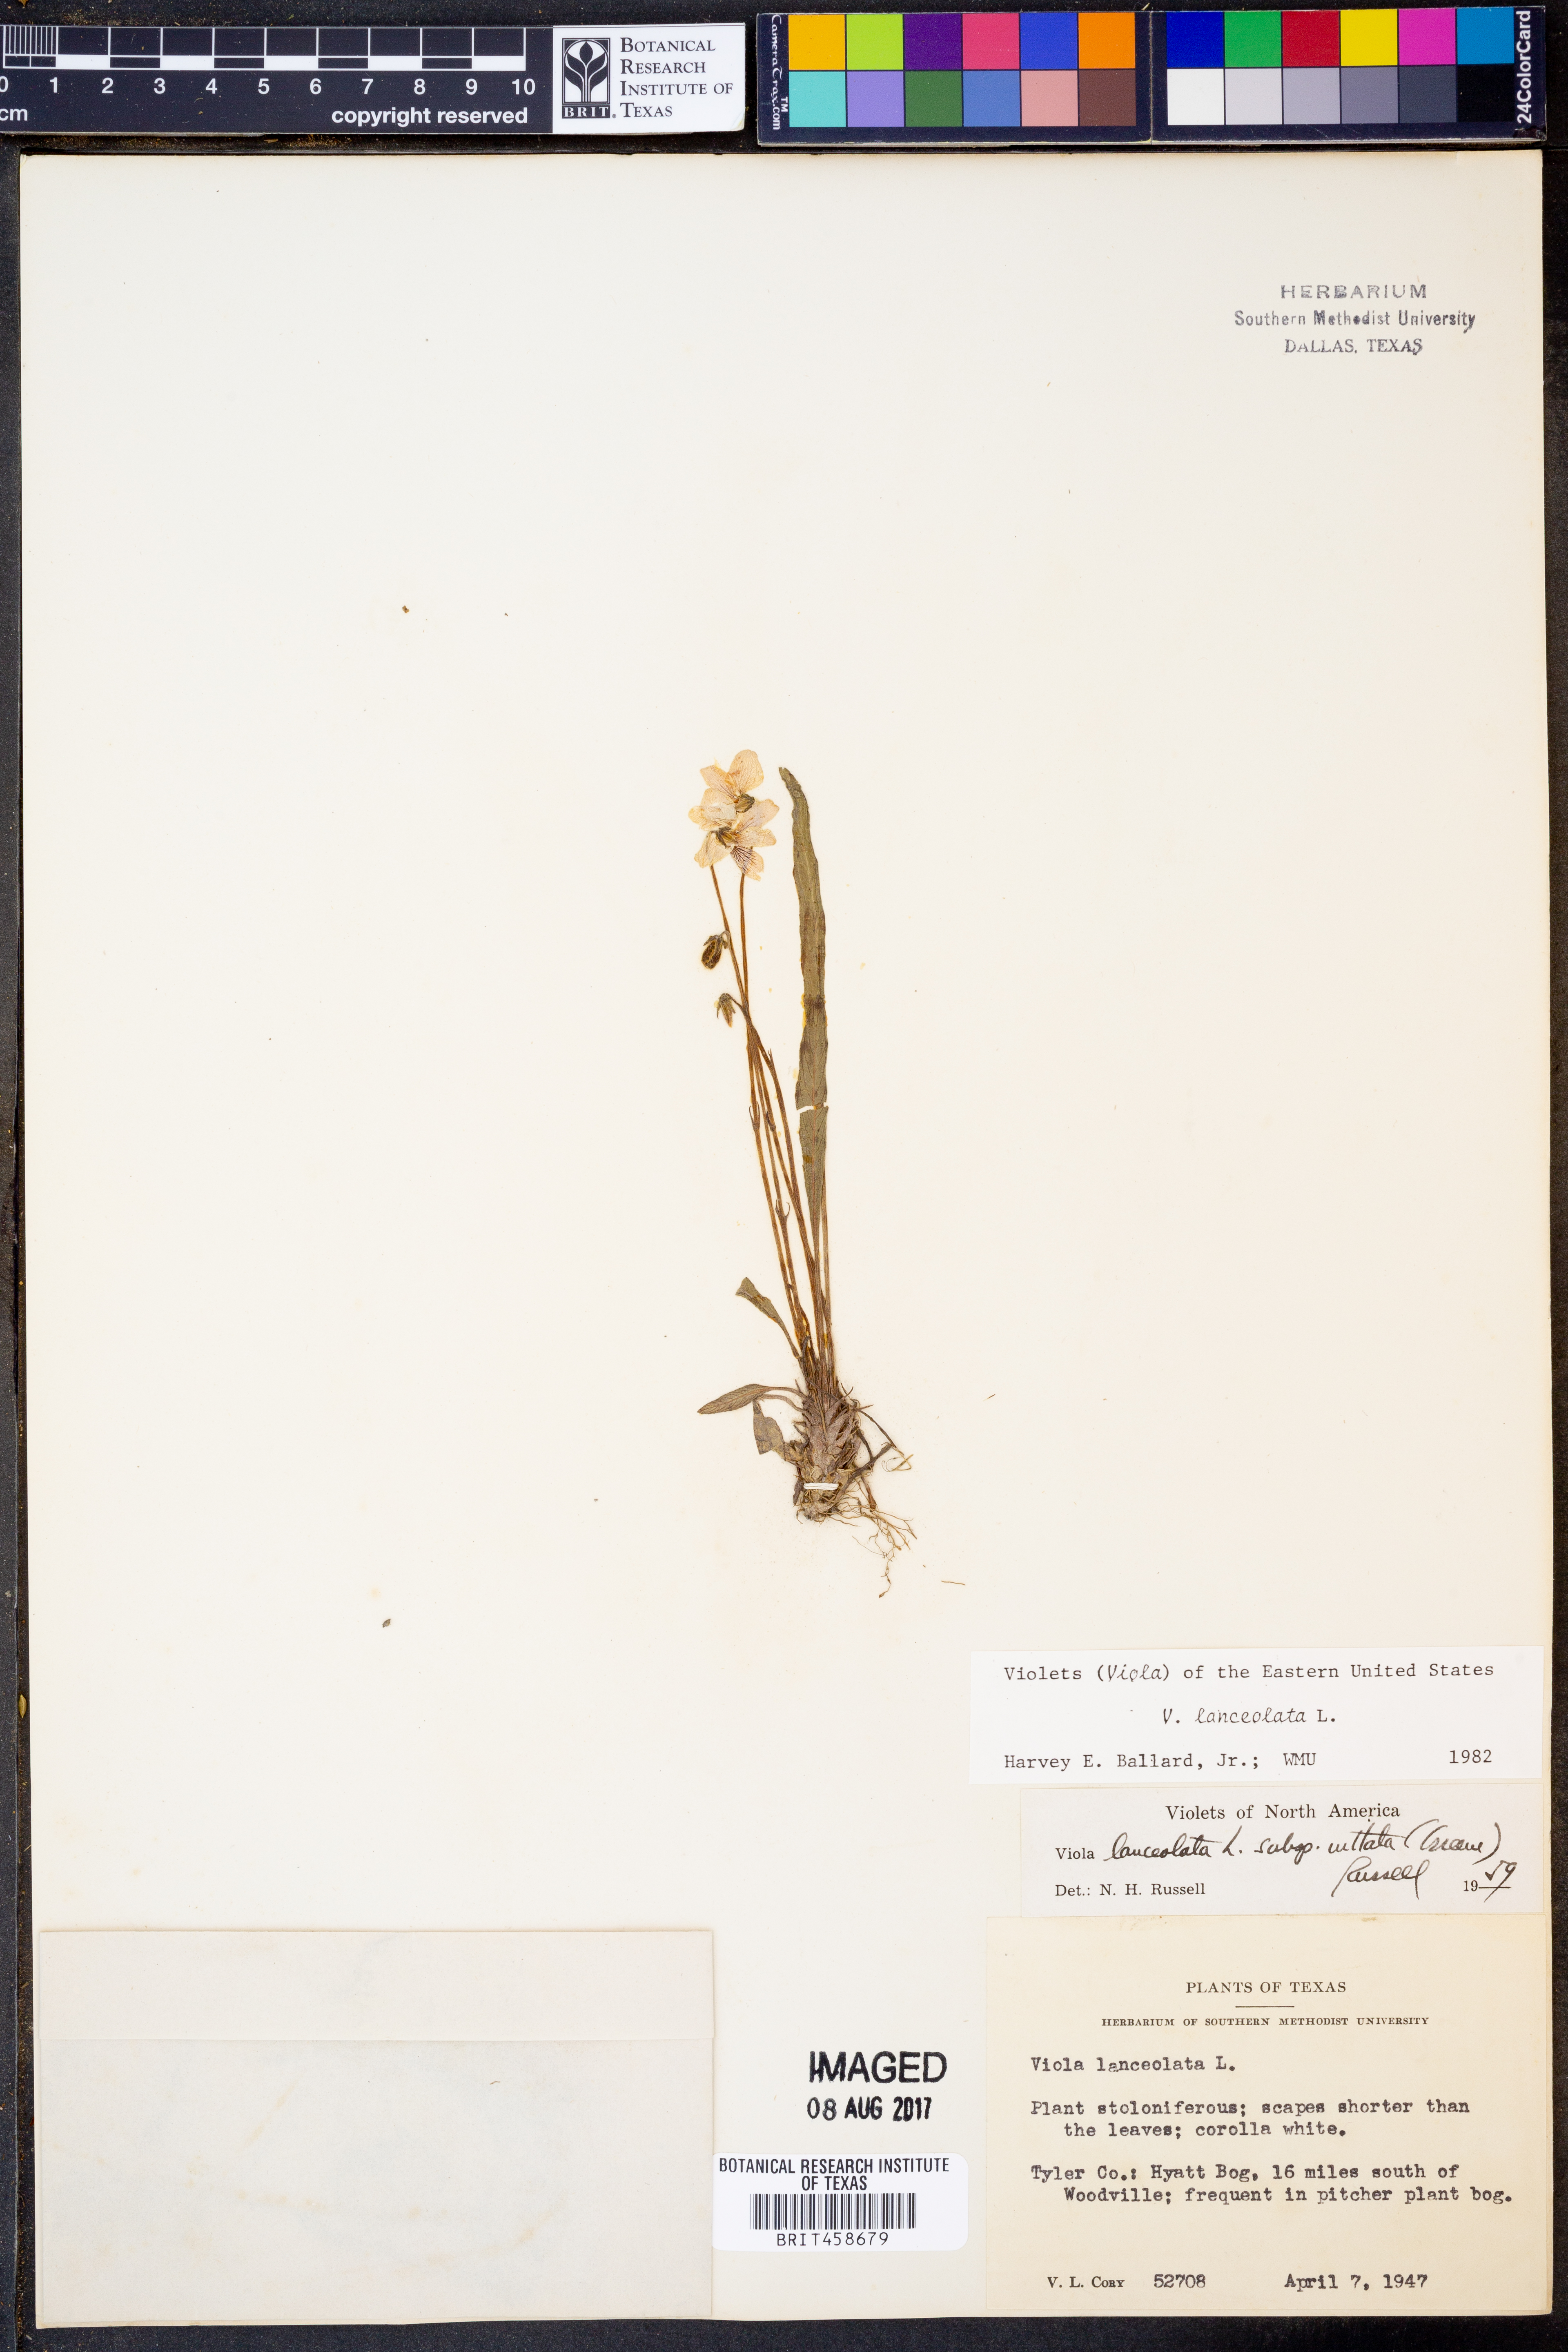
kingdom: Plantae
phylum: Tracheophyta
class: Magnoliopsida
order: Malpighiales
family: Violaceae
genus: Viola
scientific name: Viola lanceolata
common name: Bog white violet
